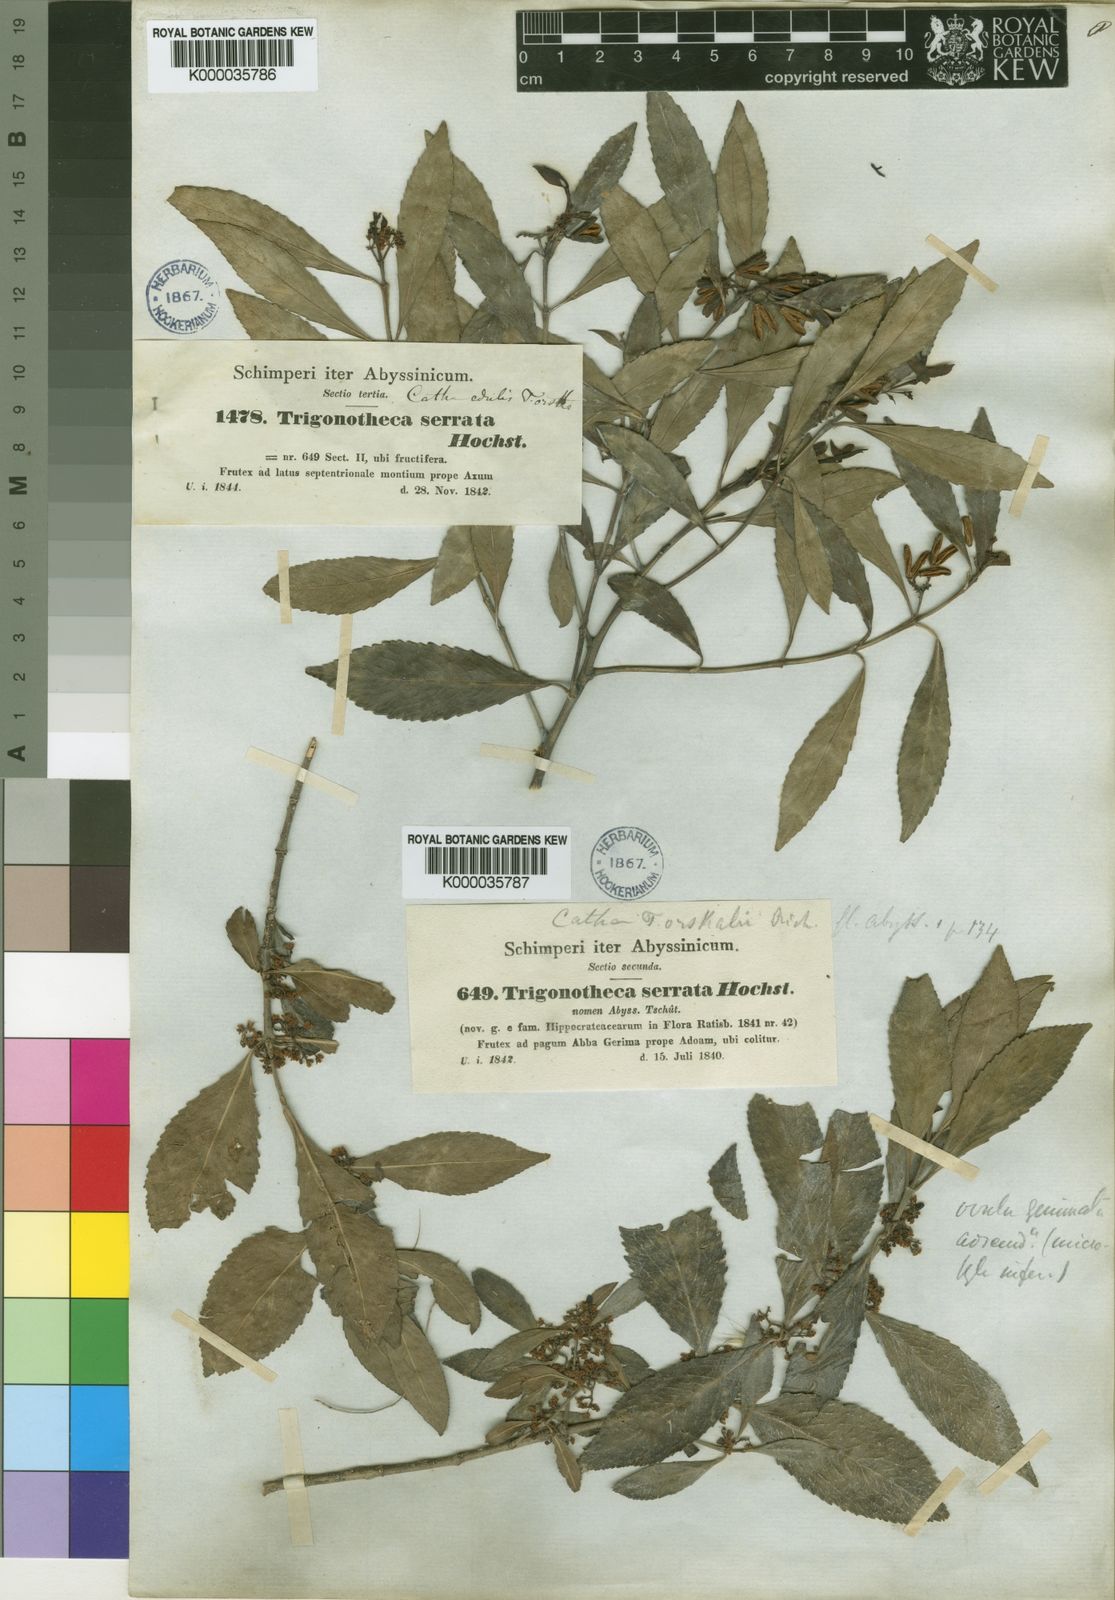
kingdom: Plantae
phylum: Tracheophyta
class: Magnoliopsida
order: Celastrales
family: Celastraceae
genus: Catha
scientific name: Catha edulis
